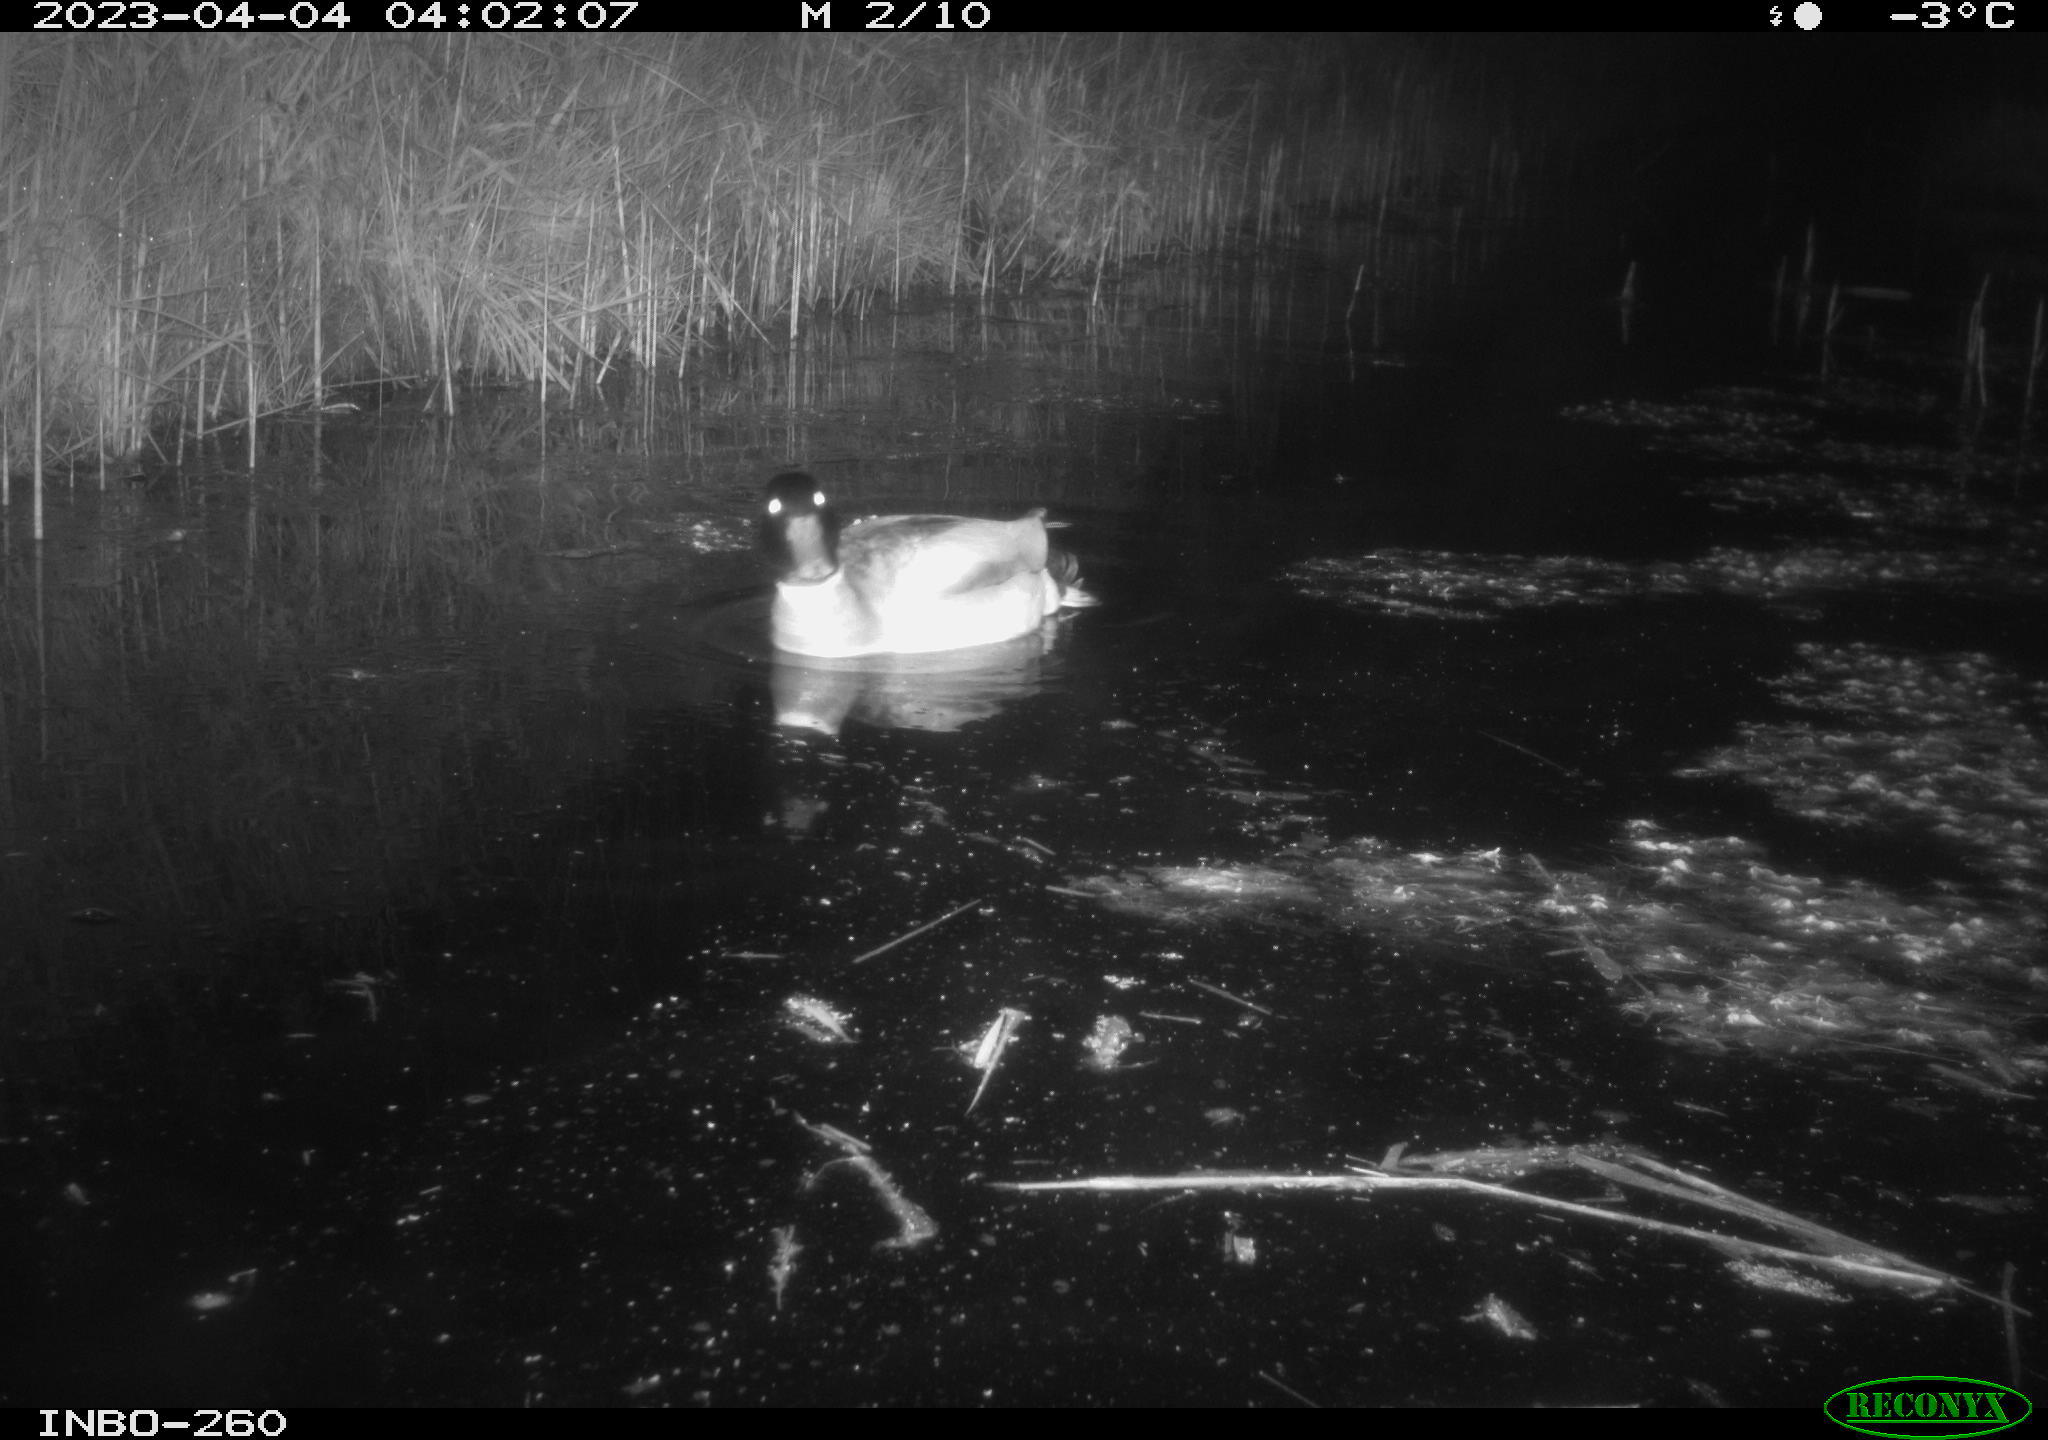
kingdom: Animalia
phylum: Chordata
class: Aves
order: Anseriformes
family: Anatidae
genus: Anas
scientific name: Anas
